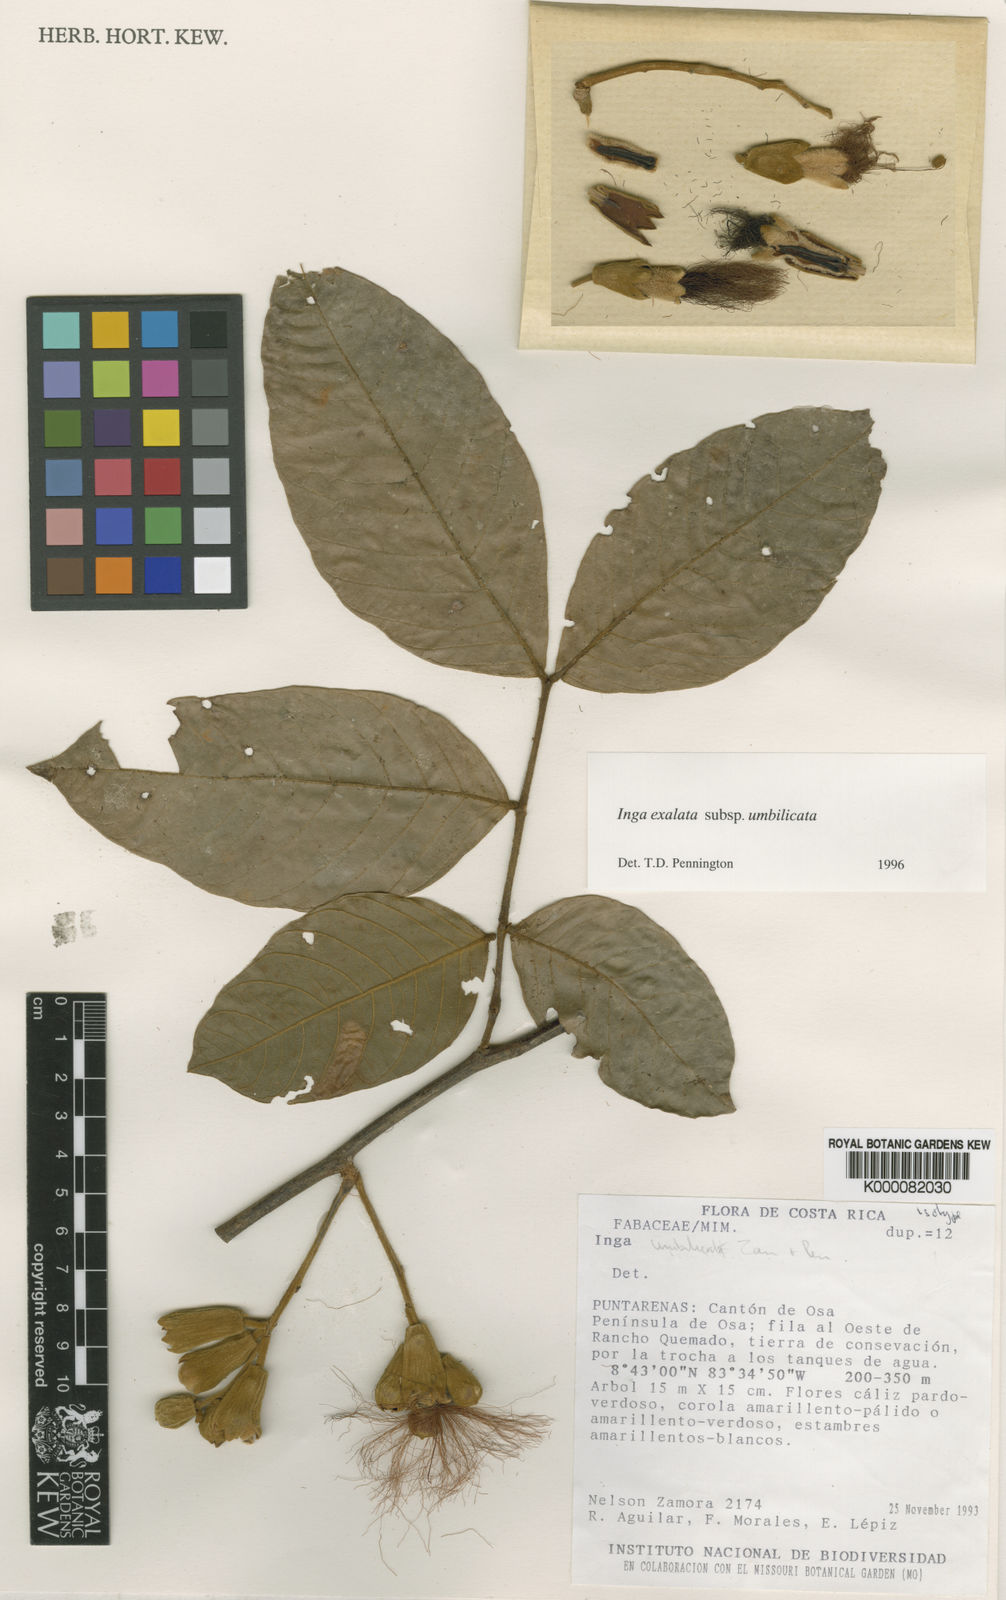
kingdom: Plantae
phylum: Tracheophyta
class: Magnoliopsida
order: Fabales
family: Fabaceae
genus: Inga
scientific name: Inga umbilicata
